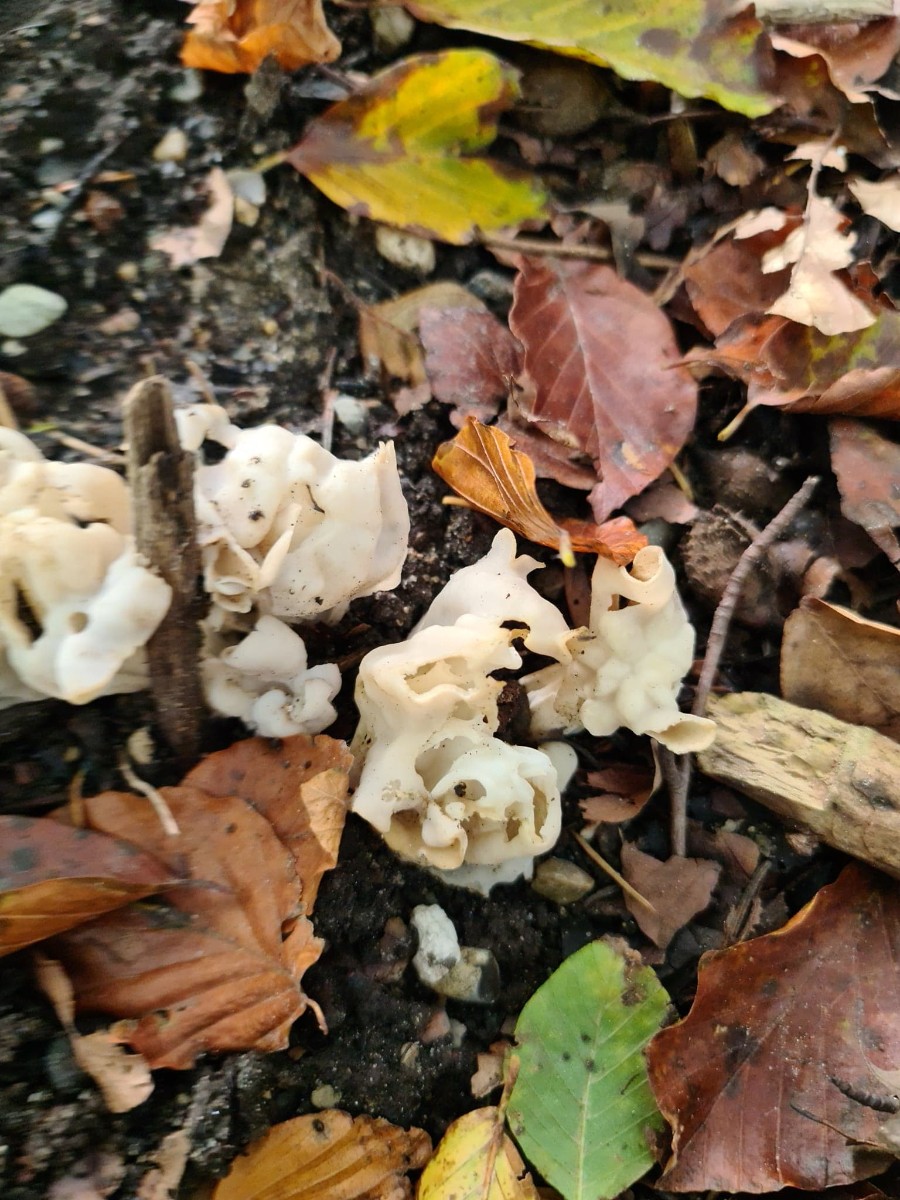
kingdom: Fungi
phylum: Ascomycota
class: Pezizomycetes
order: Pezizales
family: Helvellaceae
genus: Helvella
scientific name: Helvella crispa
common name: kruset foldhat
